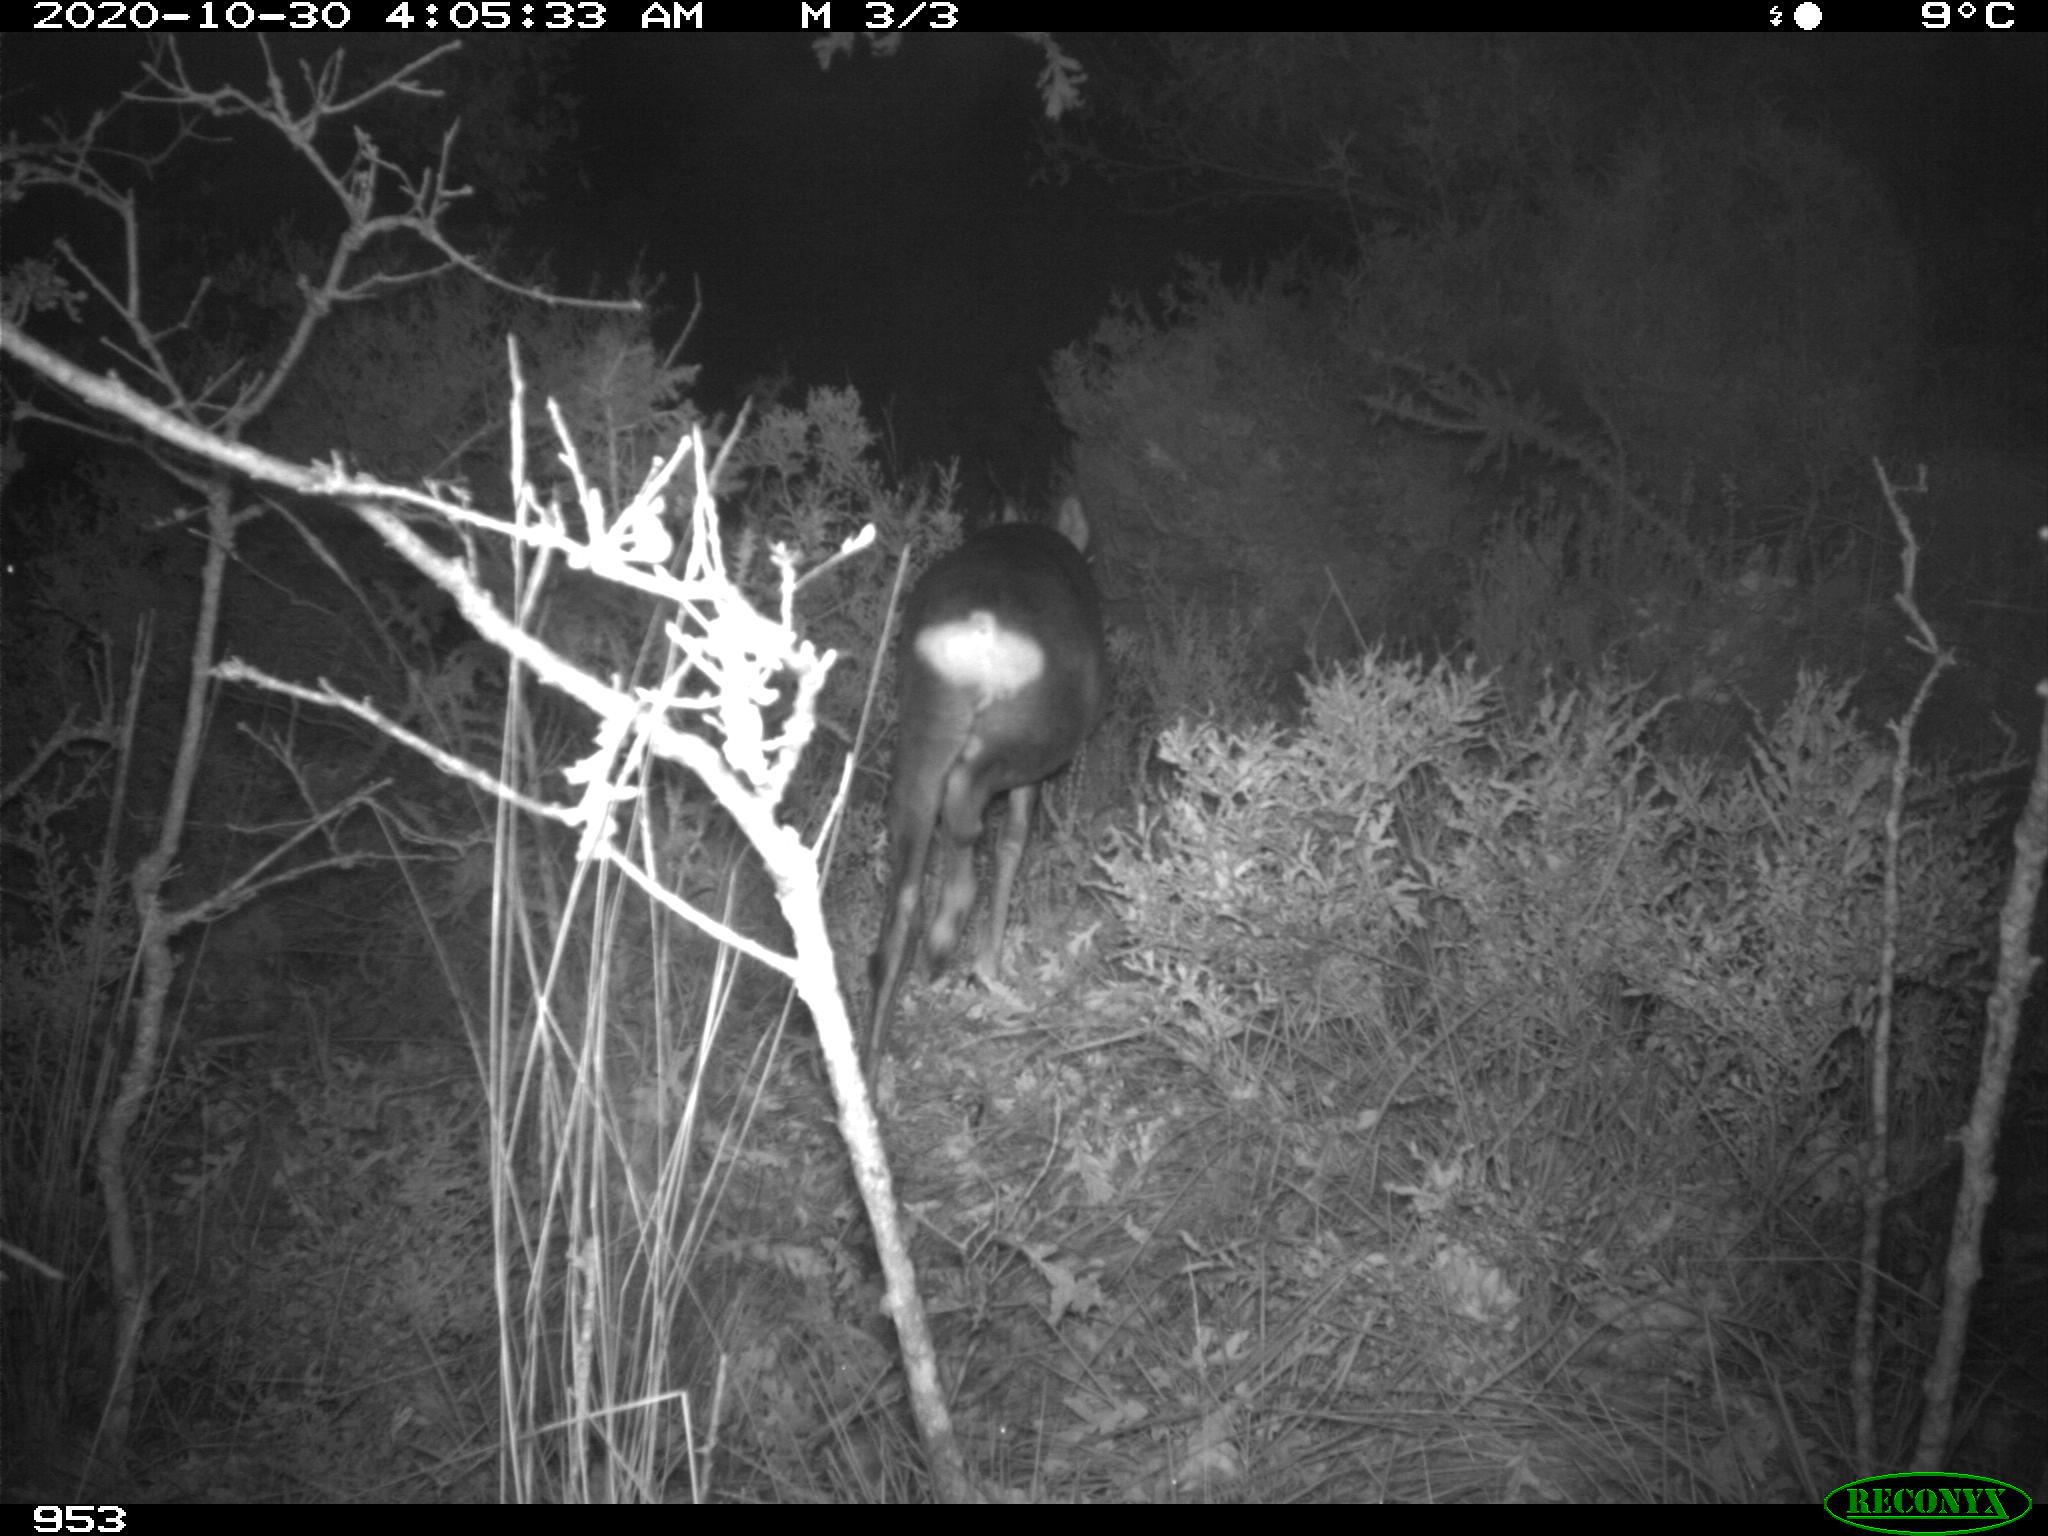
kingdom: Animalia
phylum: Chordata
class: Mammalia
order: Artiodactyla
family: Cervidae
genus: Capreolus
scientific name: Capreolus capreolus
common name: Western roe deer
